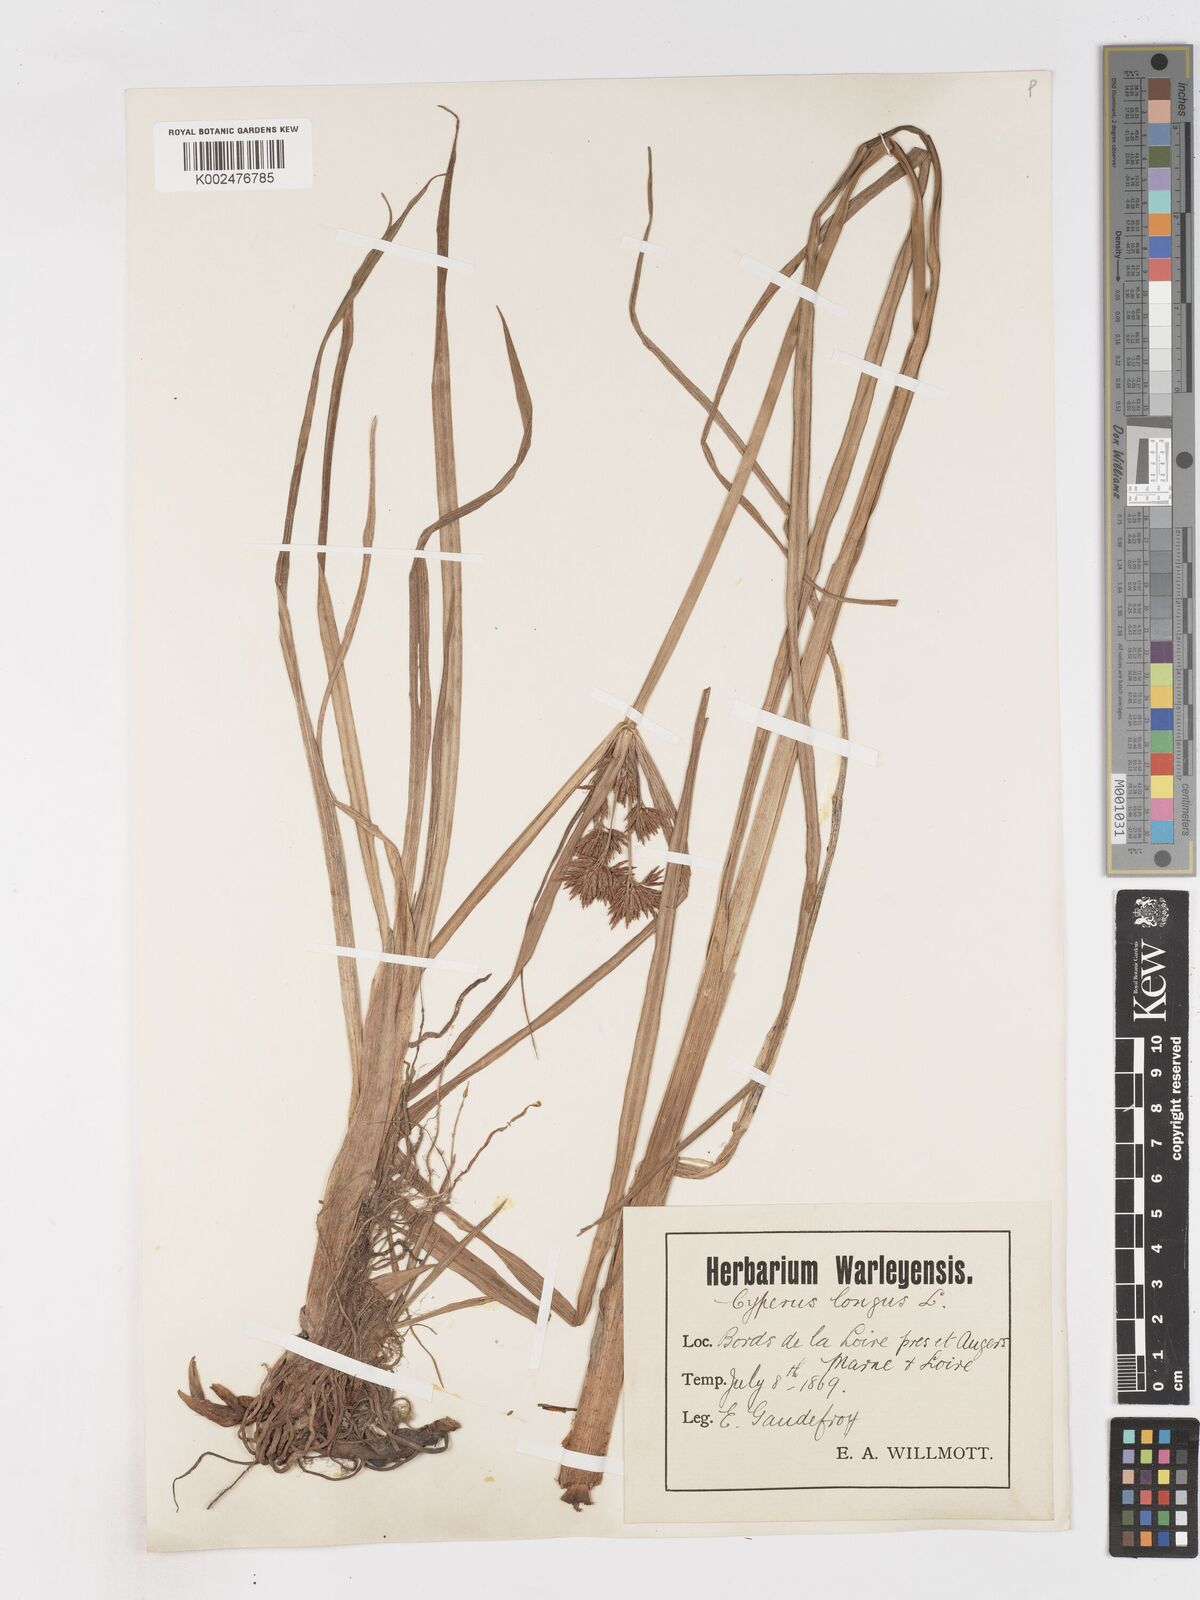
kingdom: Plantae
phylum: Tracheophyta
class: Liliopsida
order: Poales
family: Cyperaceae
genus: Cyperus
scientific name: Cyperus longus
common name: Galingale
